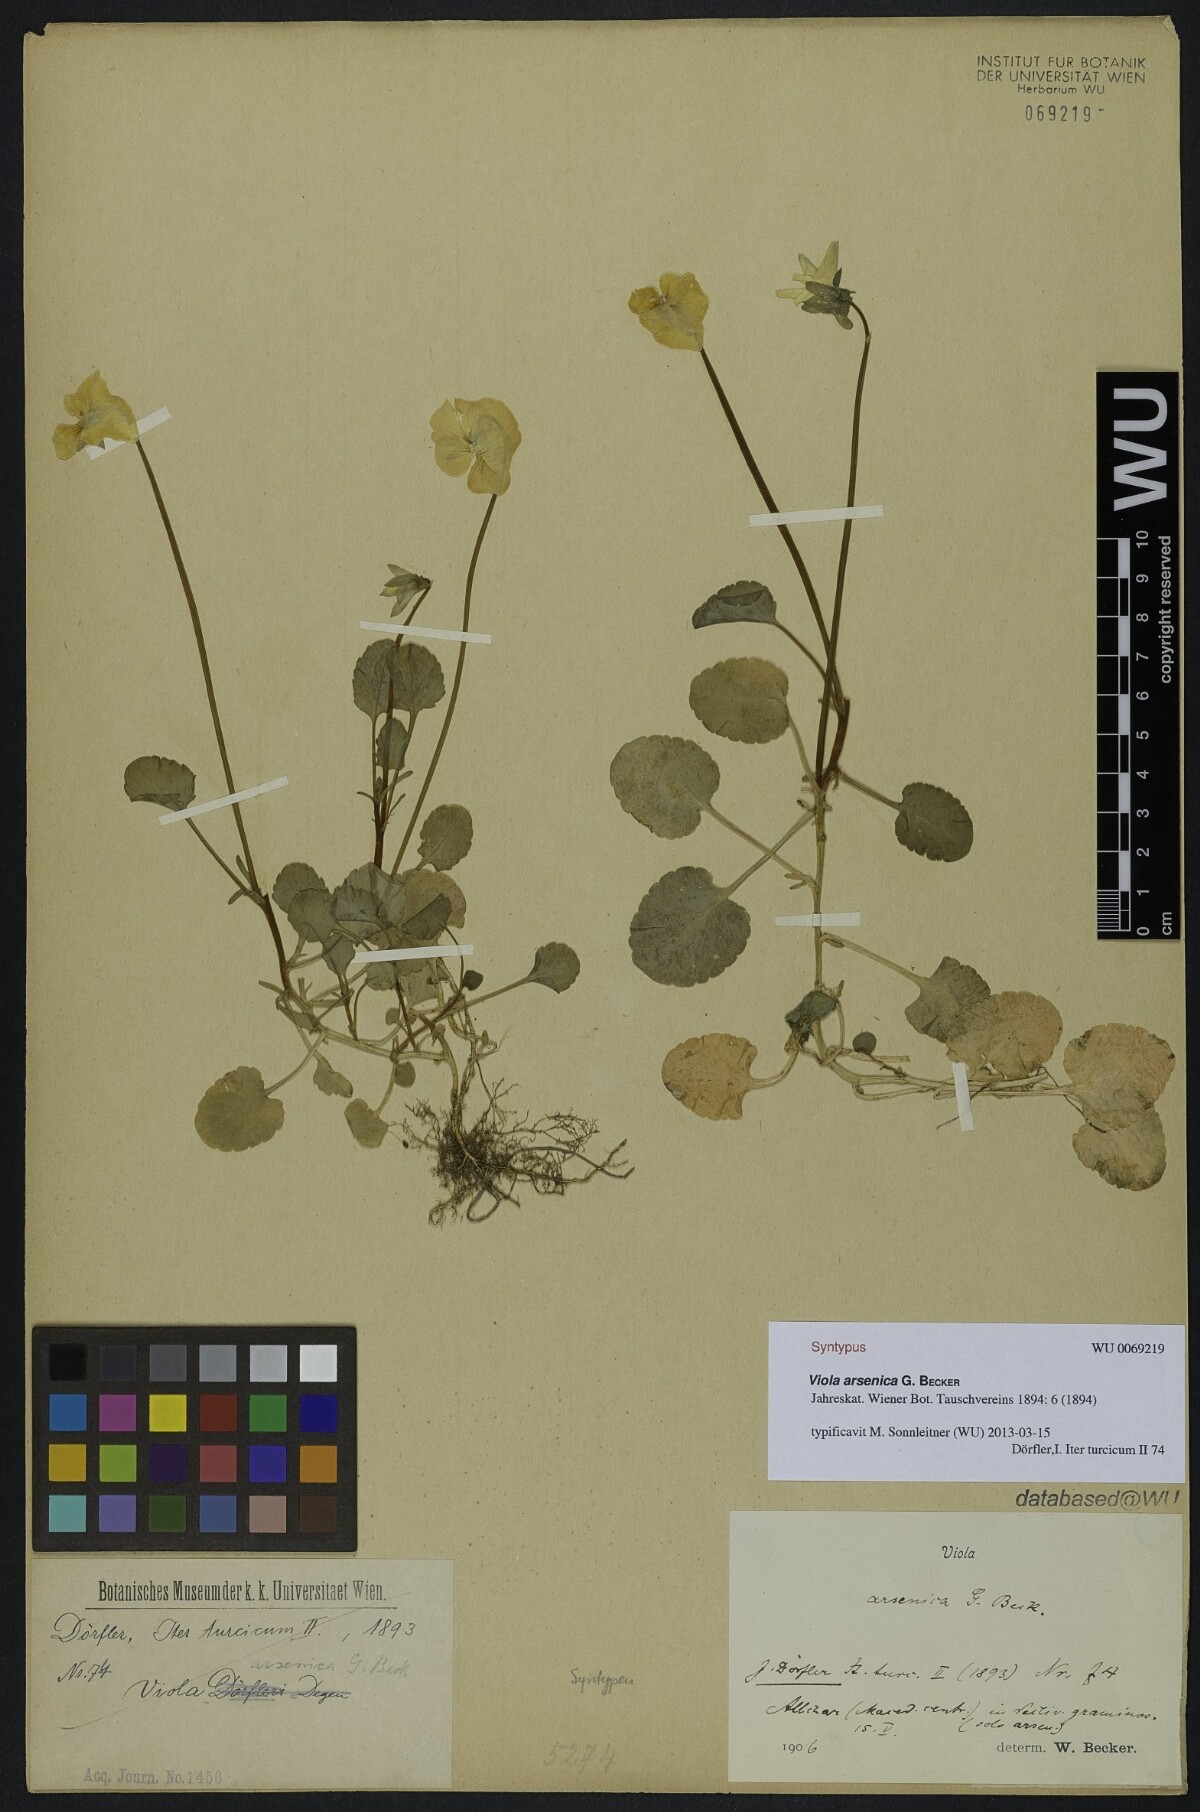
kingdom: Plantae
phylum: Tracheophyta
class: Magnoliopsida
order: Malpighiales
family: Violaceae
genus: Viola
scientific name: Viola arsenica
